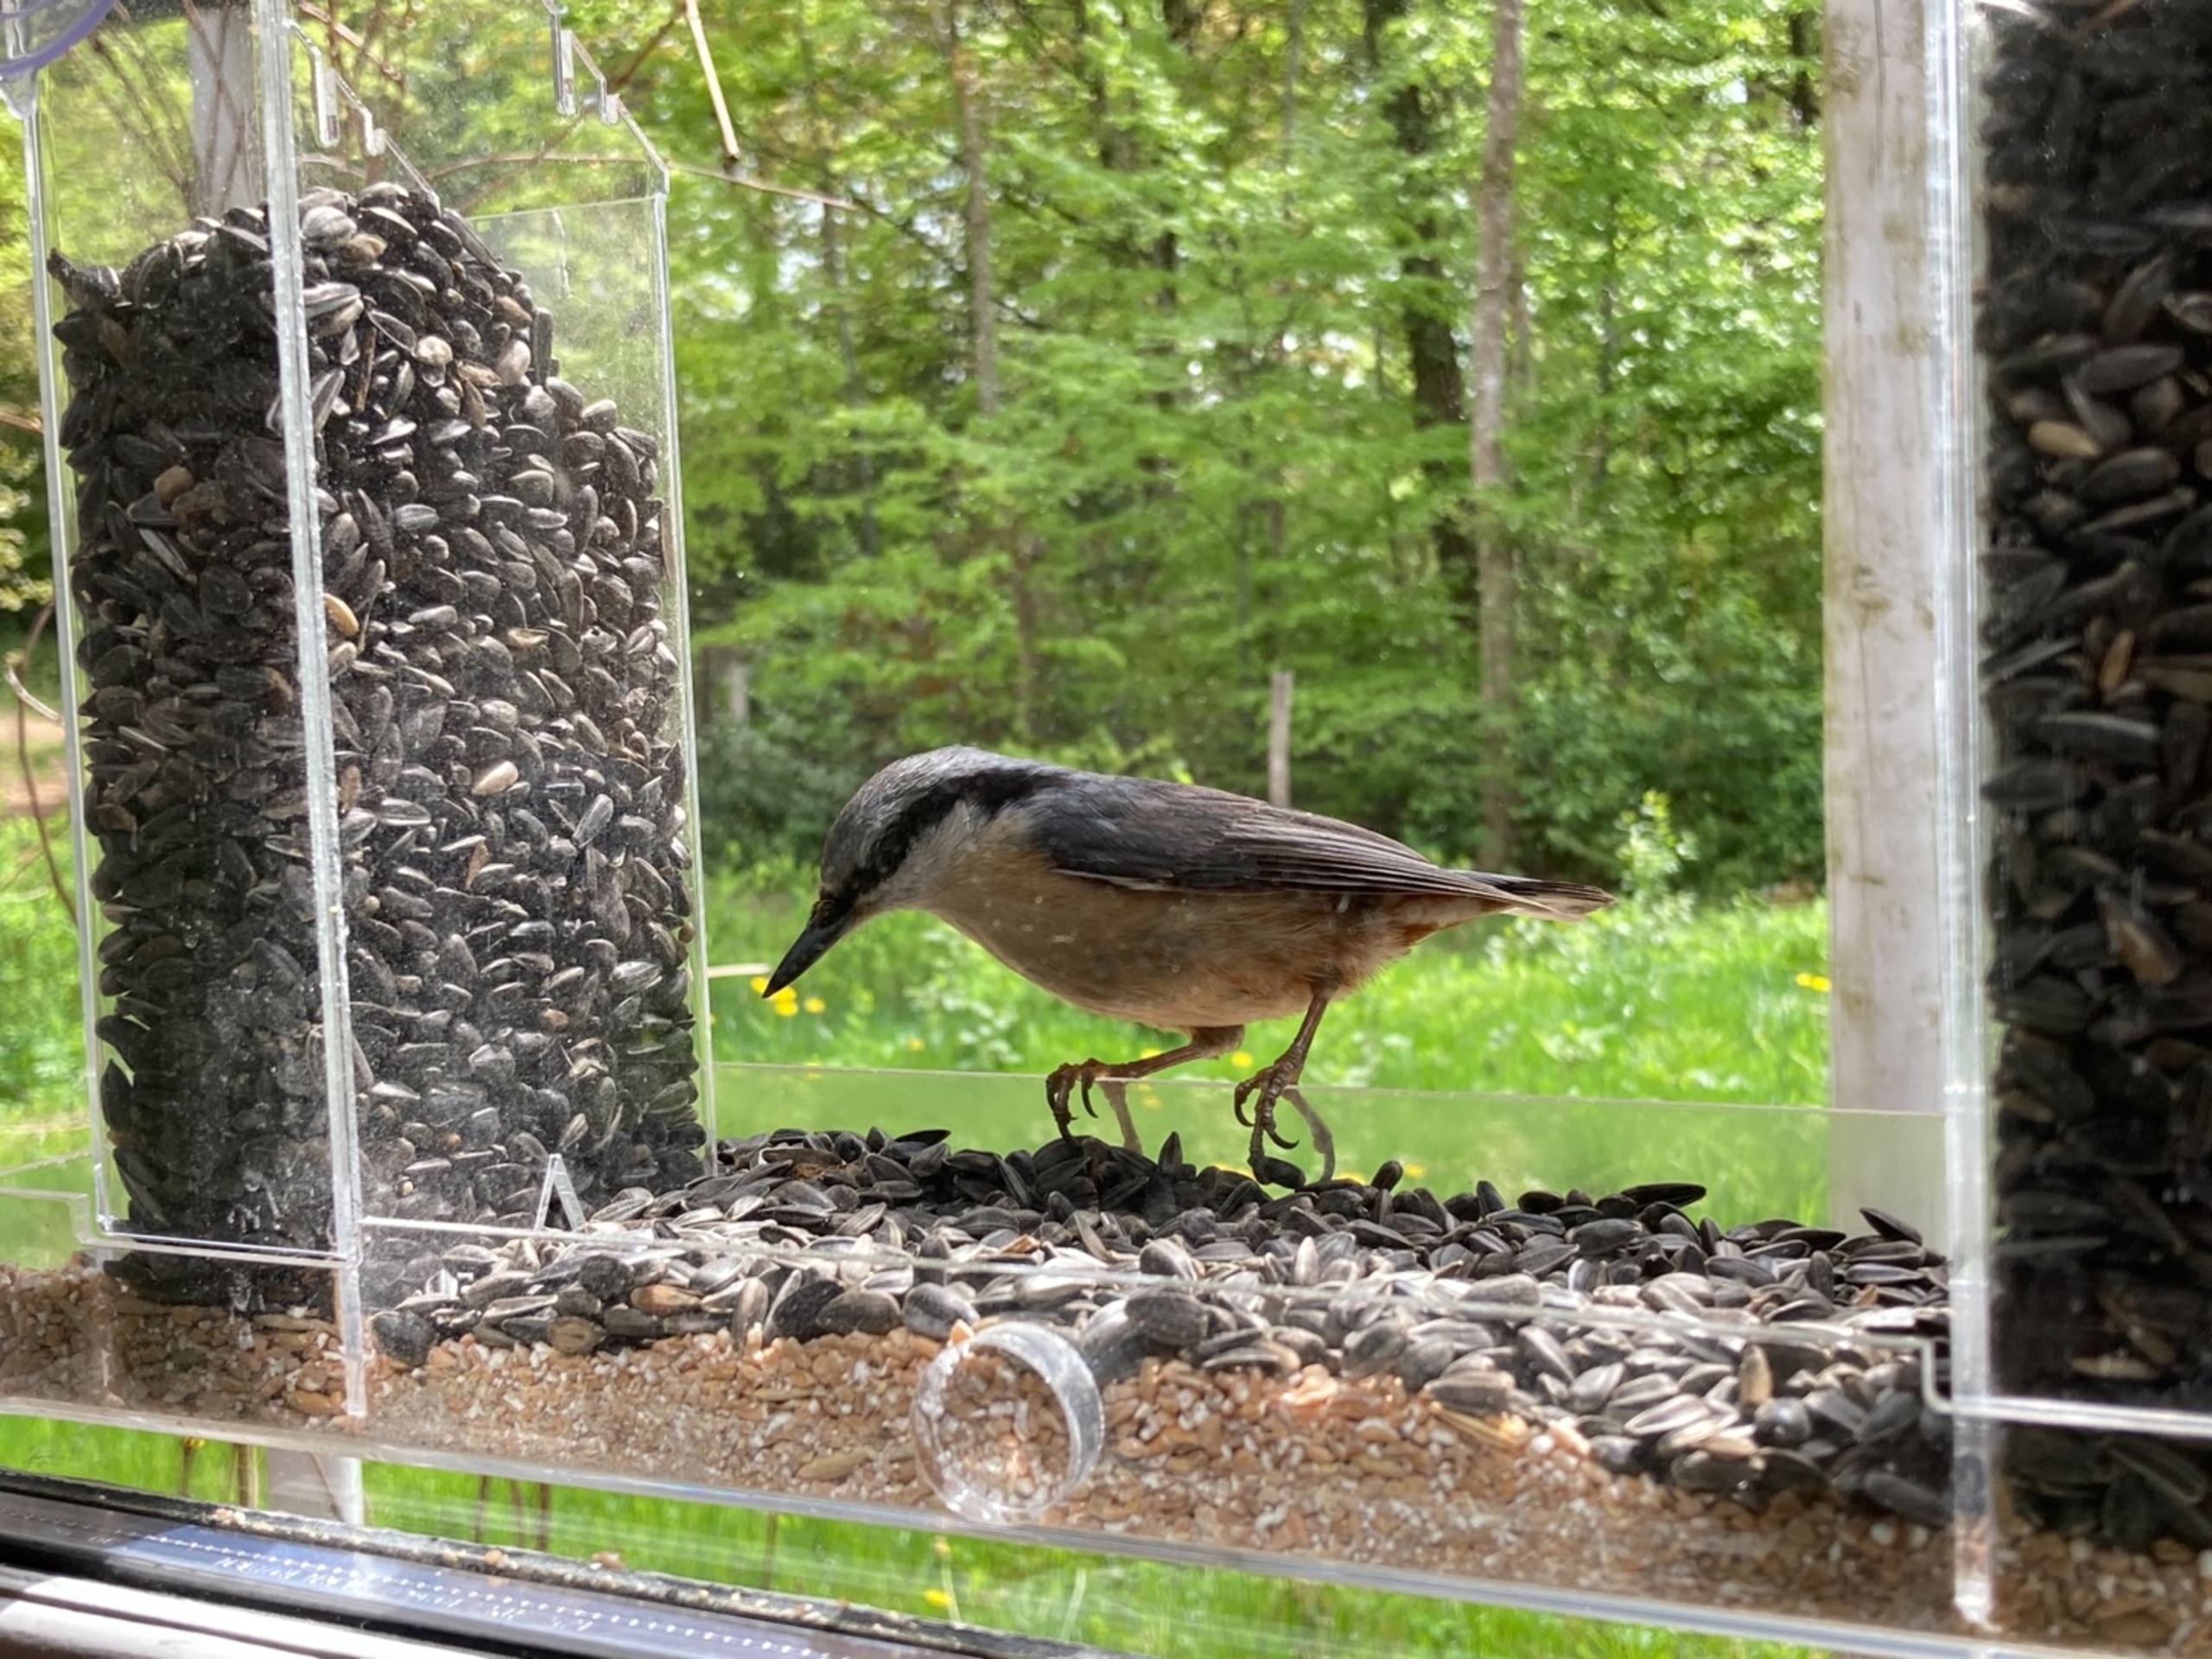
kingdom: Animalia
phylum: Chordata
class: Aves
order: Passeriformes
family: Sittidae
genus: Sitta
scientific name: Sitta europaea
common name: Spætmejse
